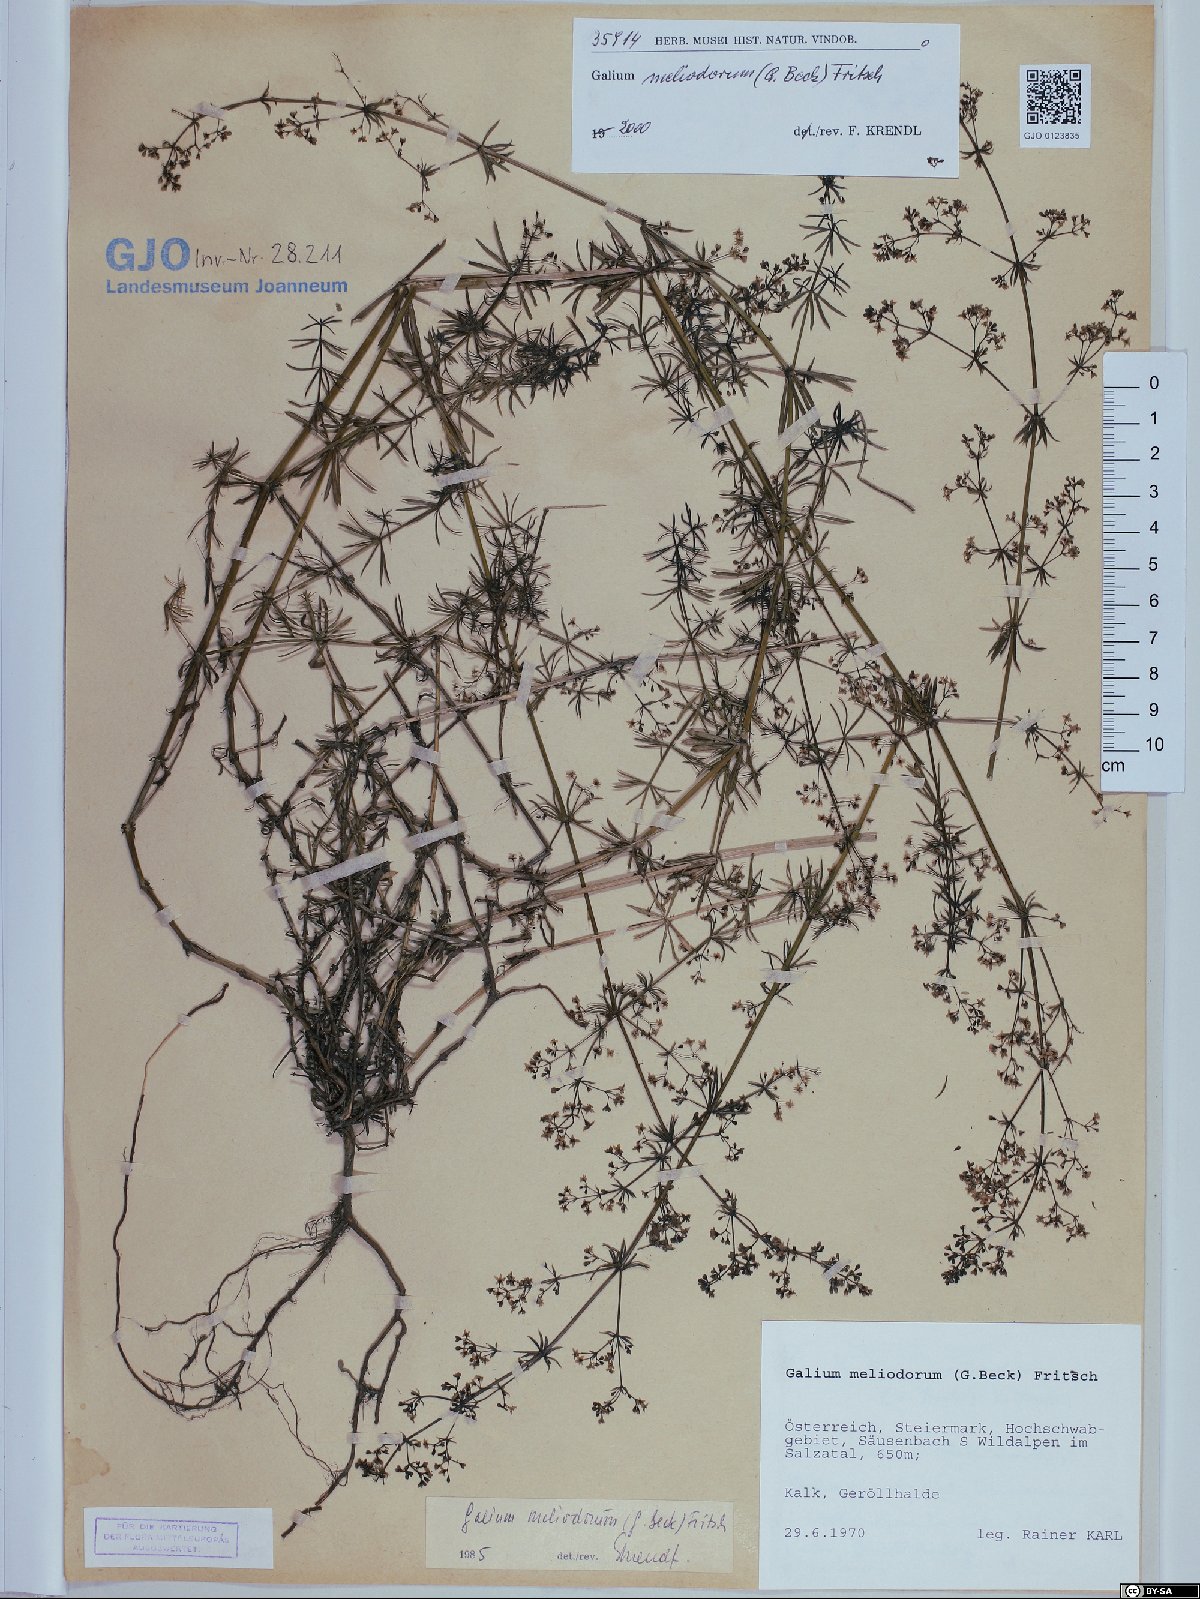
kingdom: Plantae
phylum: Tracheophyta
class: Magnoliopsida
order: Gentianales
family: Rubiaceae
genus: Galium
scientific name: Galium meliodorum
